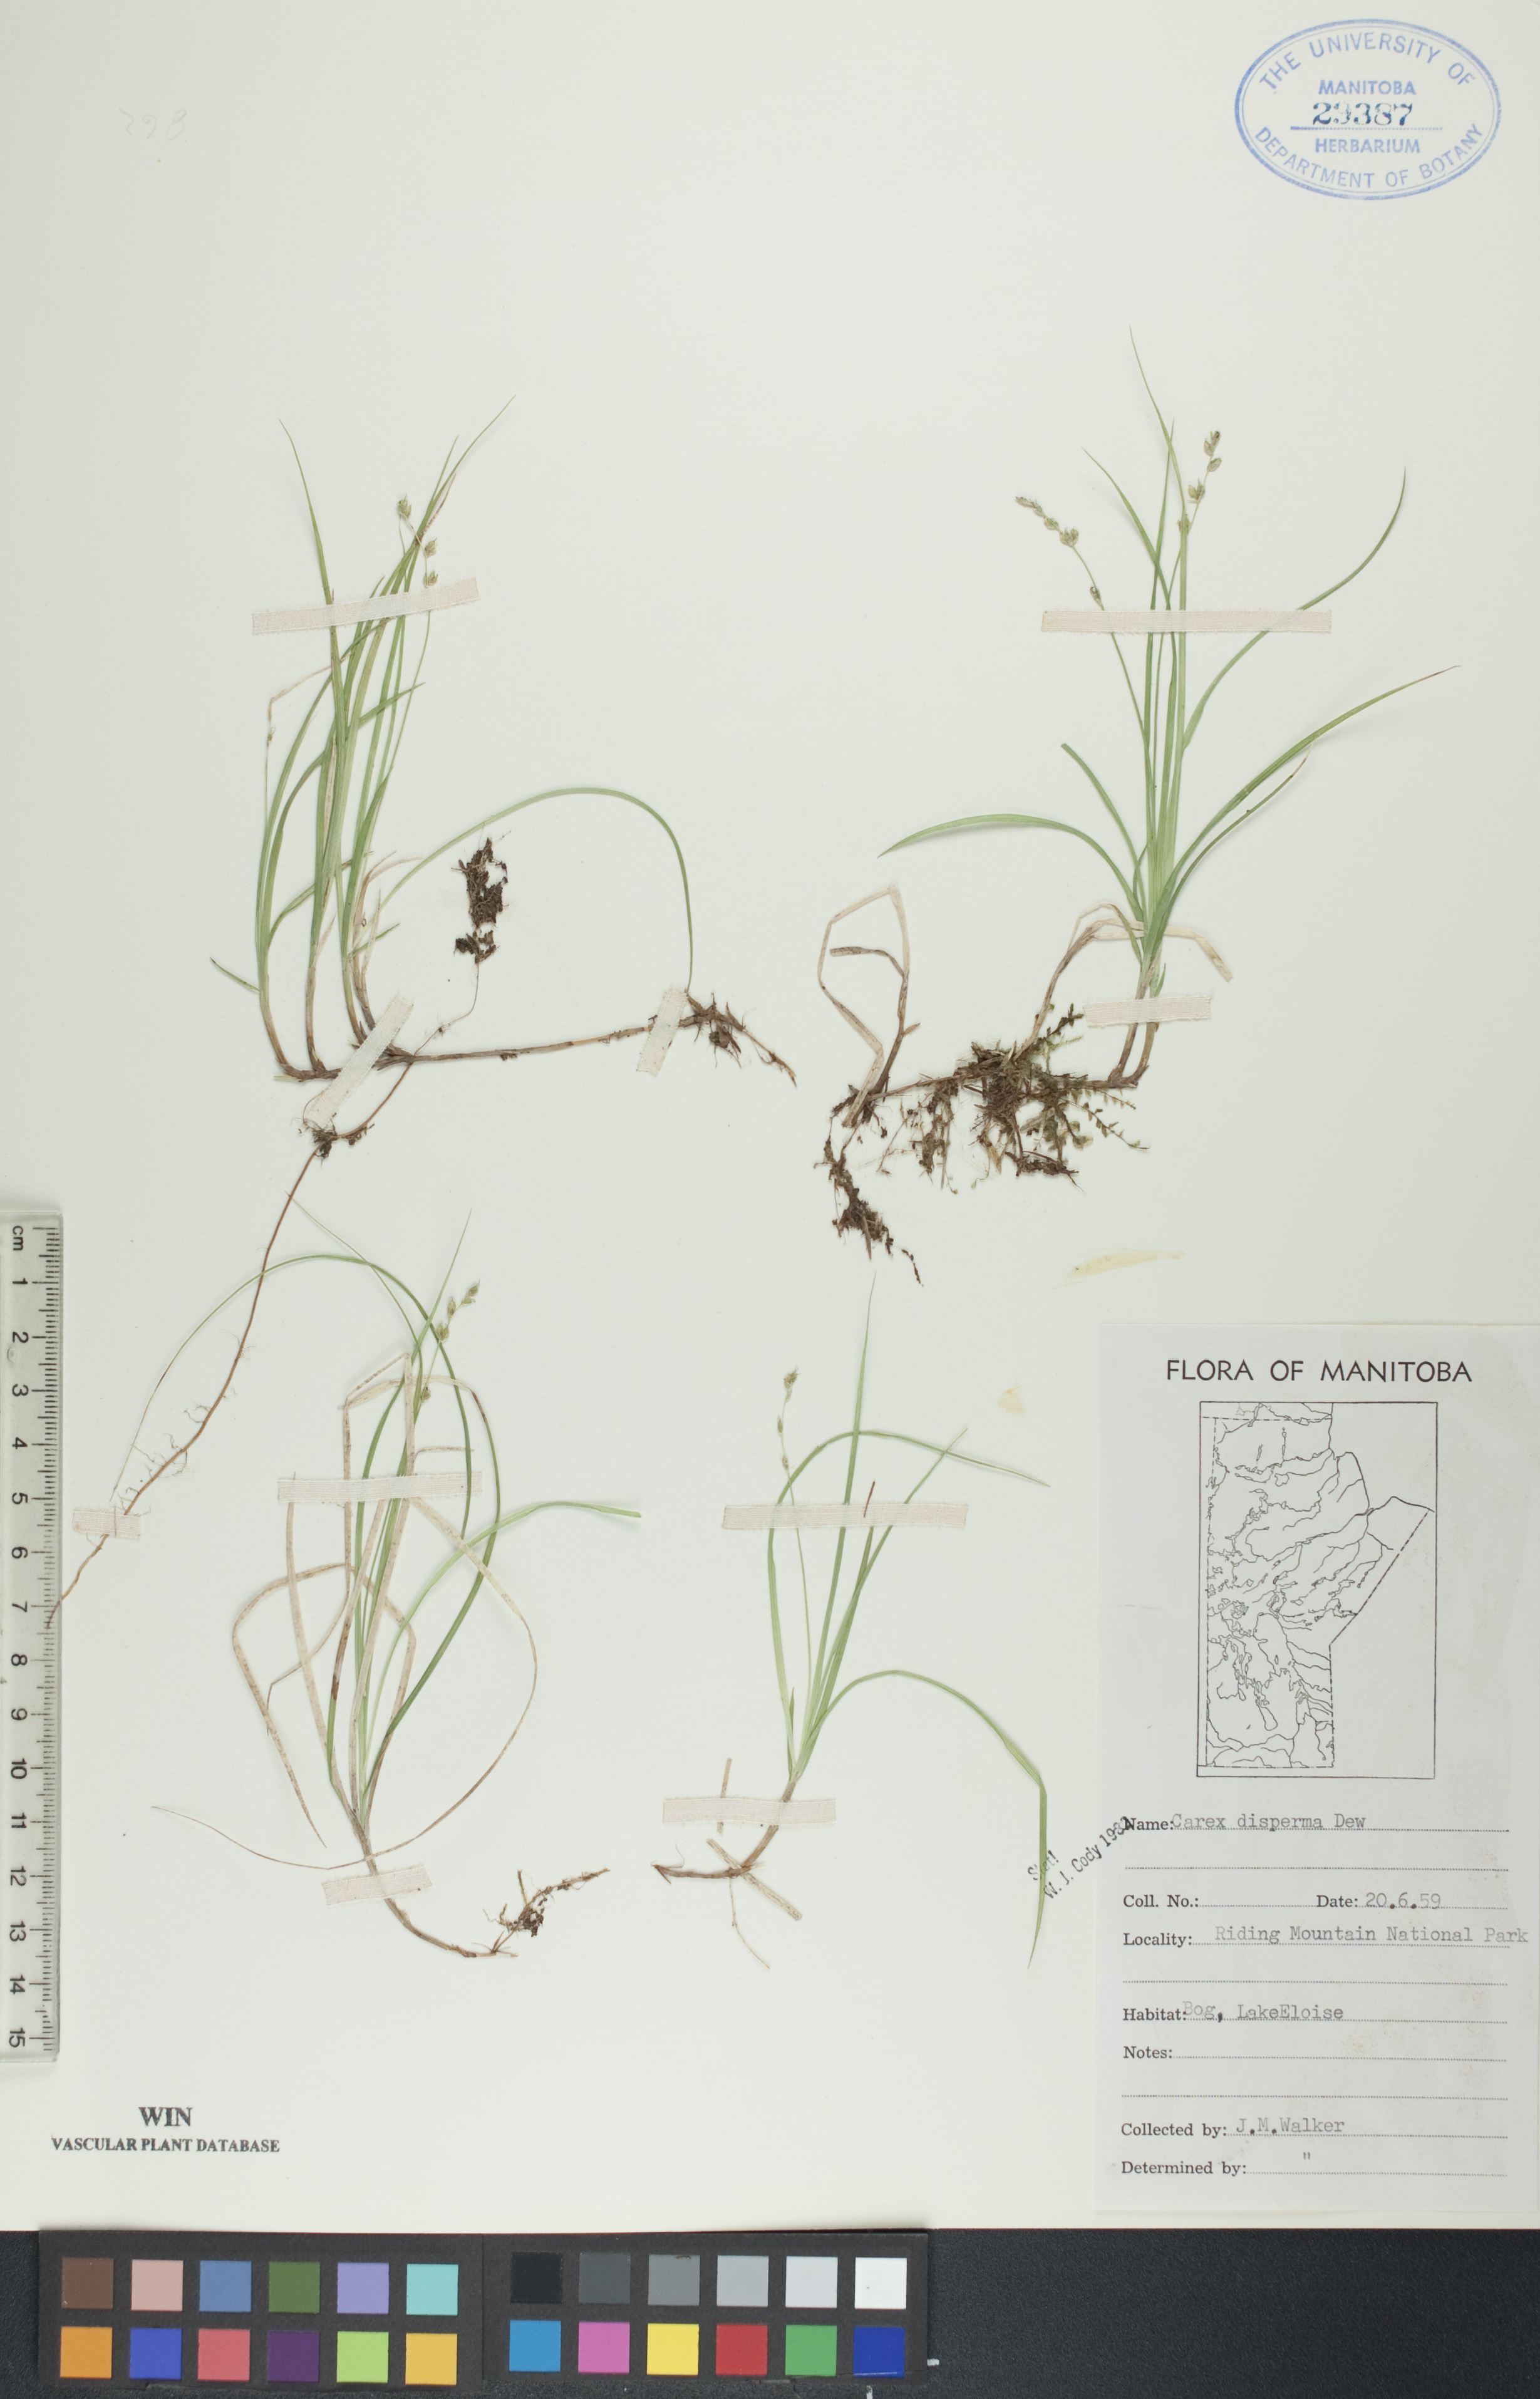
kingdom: Plantae
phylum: Tracheophyta
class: Liliopsida
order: Poales
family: Cyperaceae
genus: Carex
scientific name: Carex disperma
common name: Short-leaved sedge
